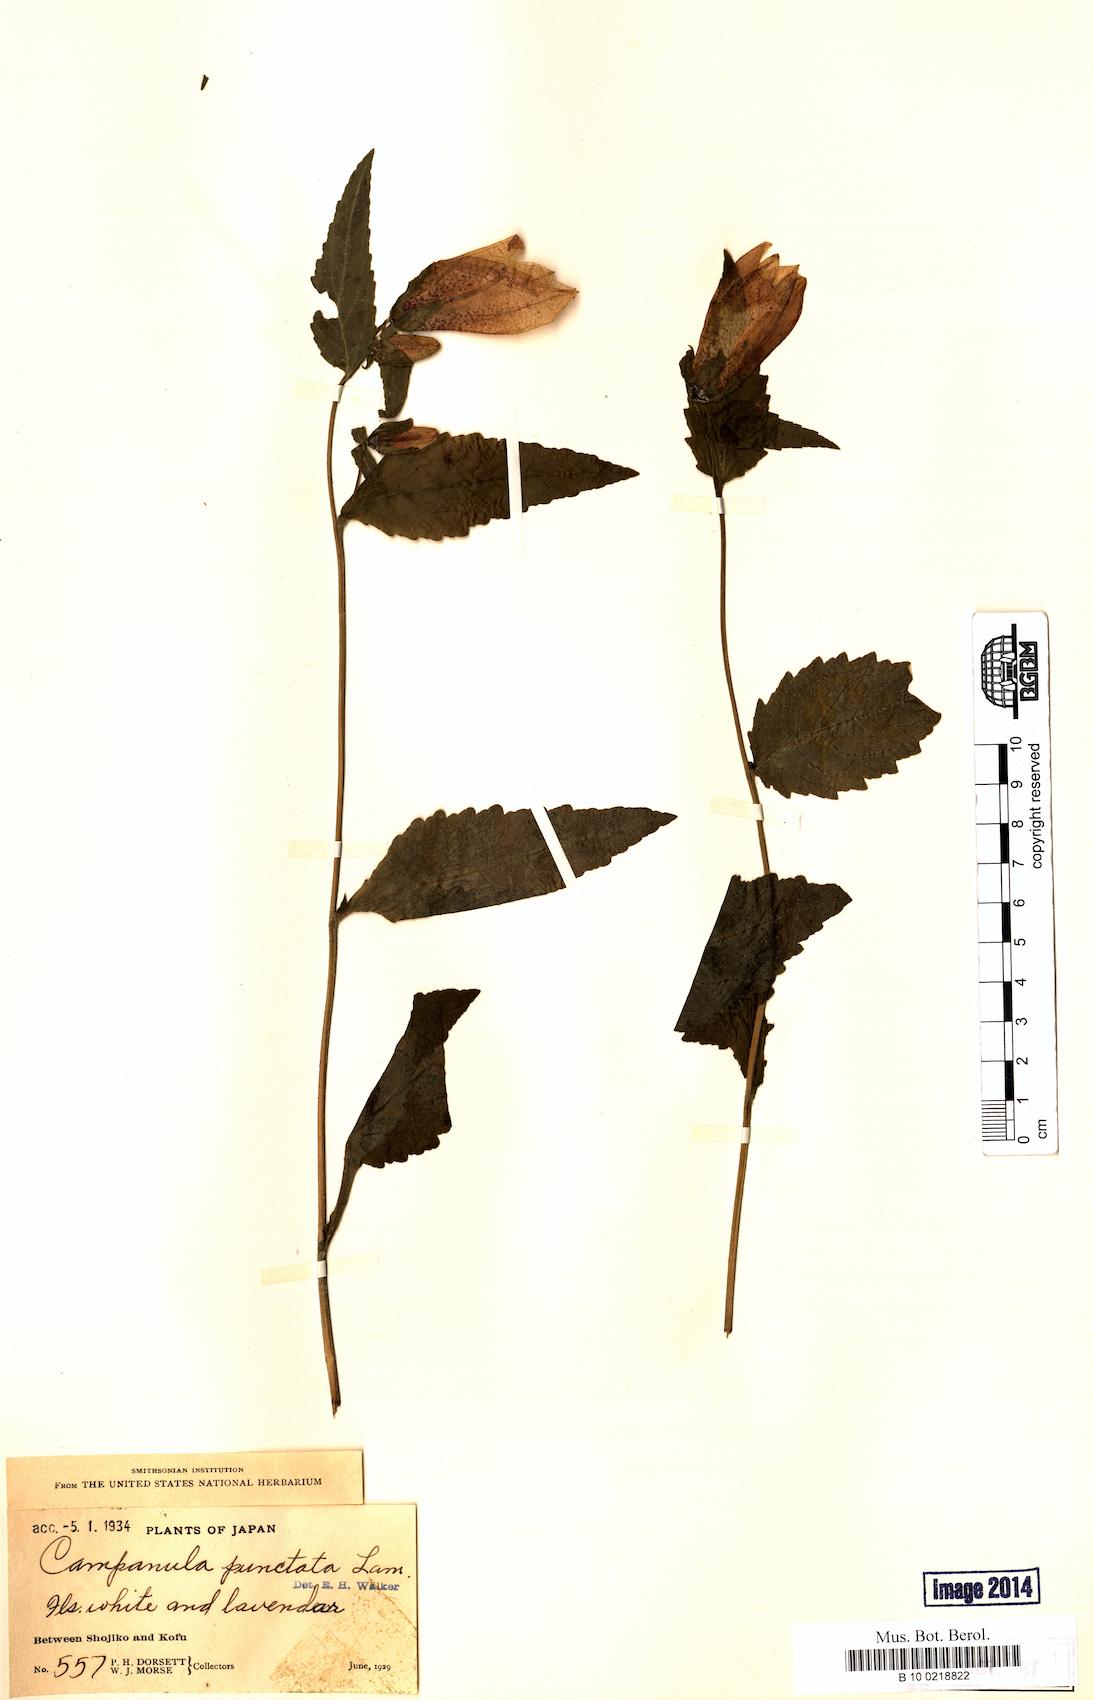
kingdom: Plantae
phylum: Tracheophyta
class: Magnoliopsida
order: Asterales
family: Campanulaceae
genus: Campanula
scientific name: Campanula punctata
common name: Spotted bellflower
